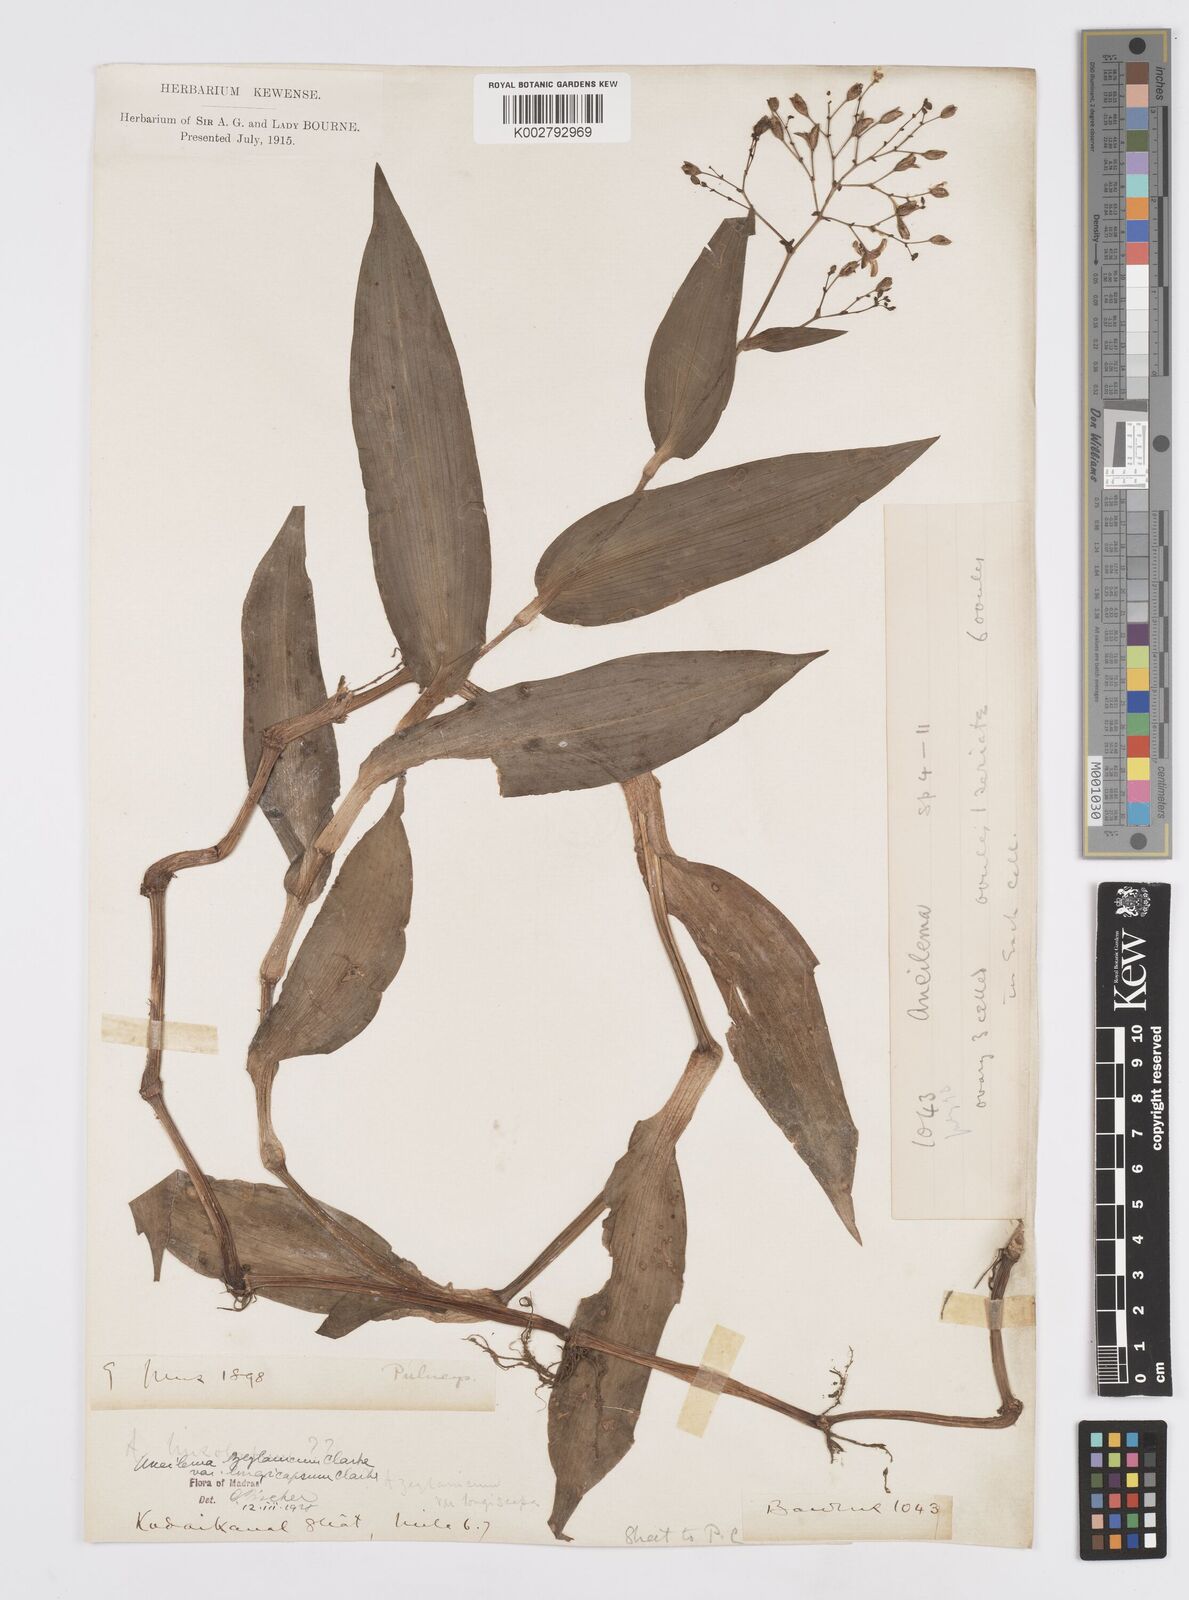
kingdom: Plantae
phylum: Tracheophyta
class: Liliopsida
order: Commelinales
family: Commelinaceae
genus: Murdannia
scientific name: Murdannia zeylanica
